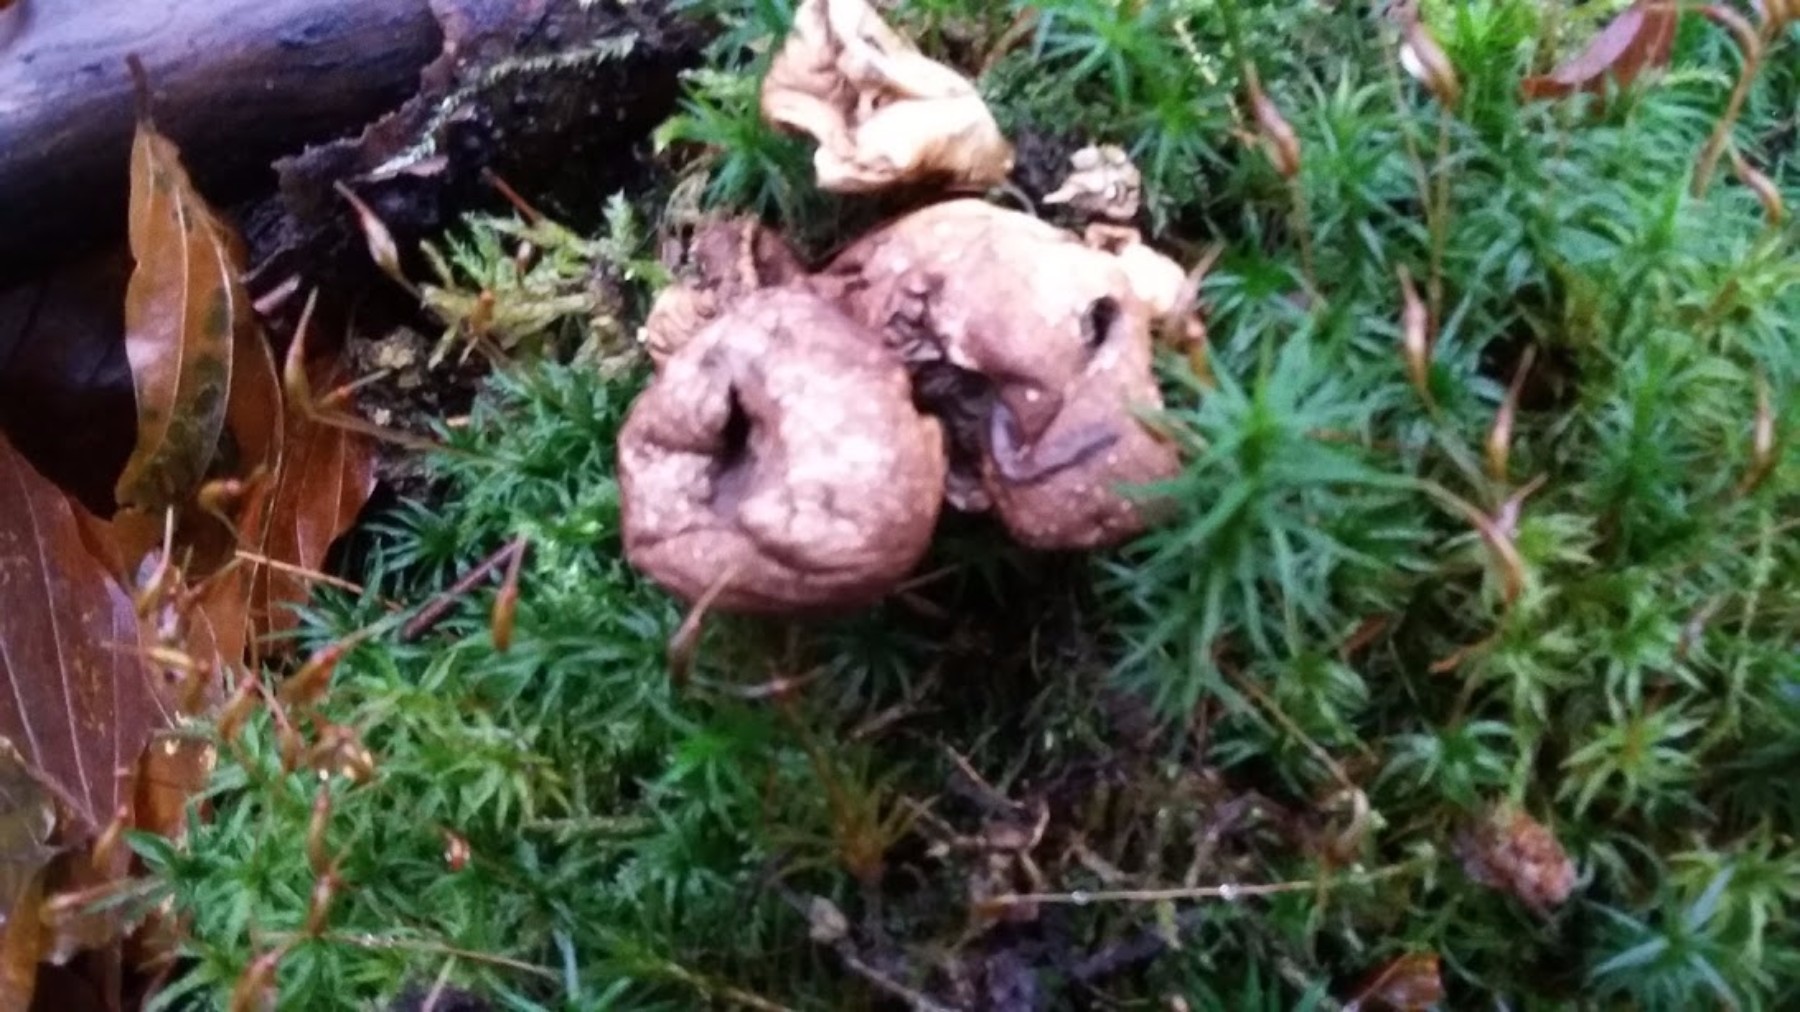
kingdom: Fungi
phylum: Basidiomycota
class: Agaricomycetes
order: Agaricales
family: Lycoperdaceae
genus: Apioperdon
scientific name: Apioperdon pyriforme
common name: pære-støvbold
